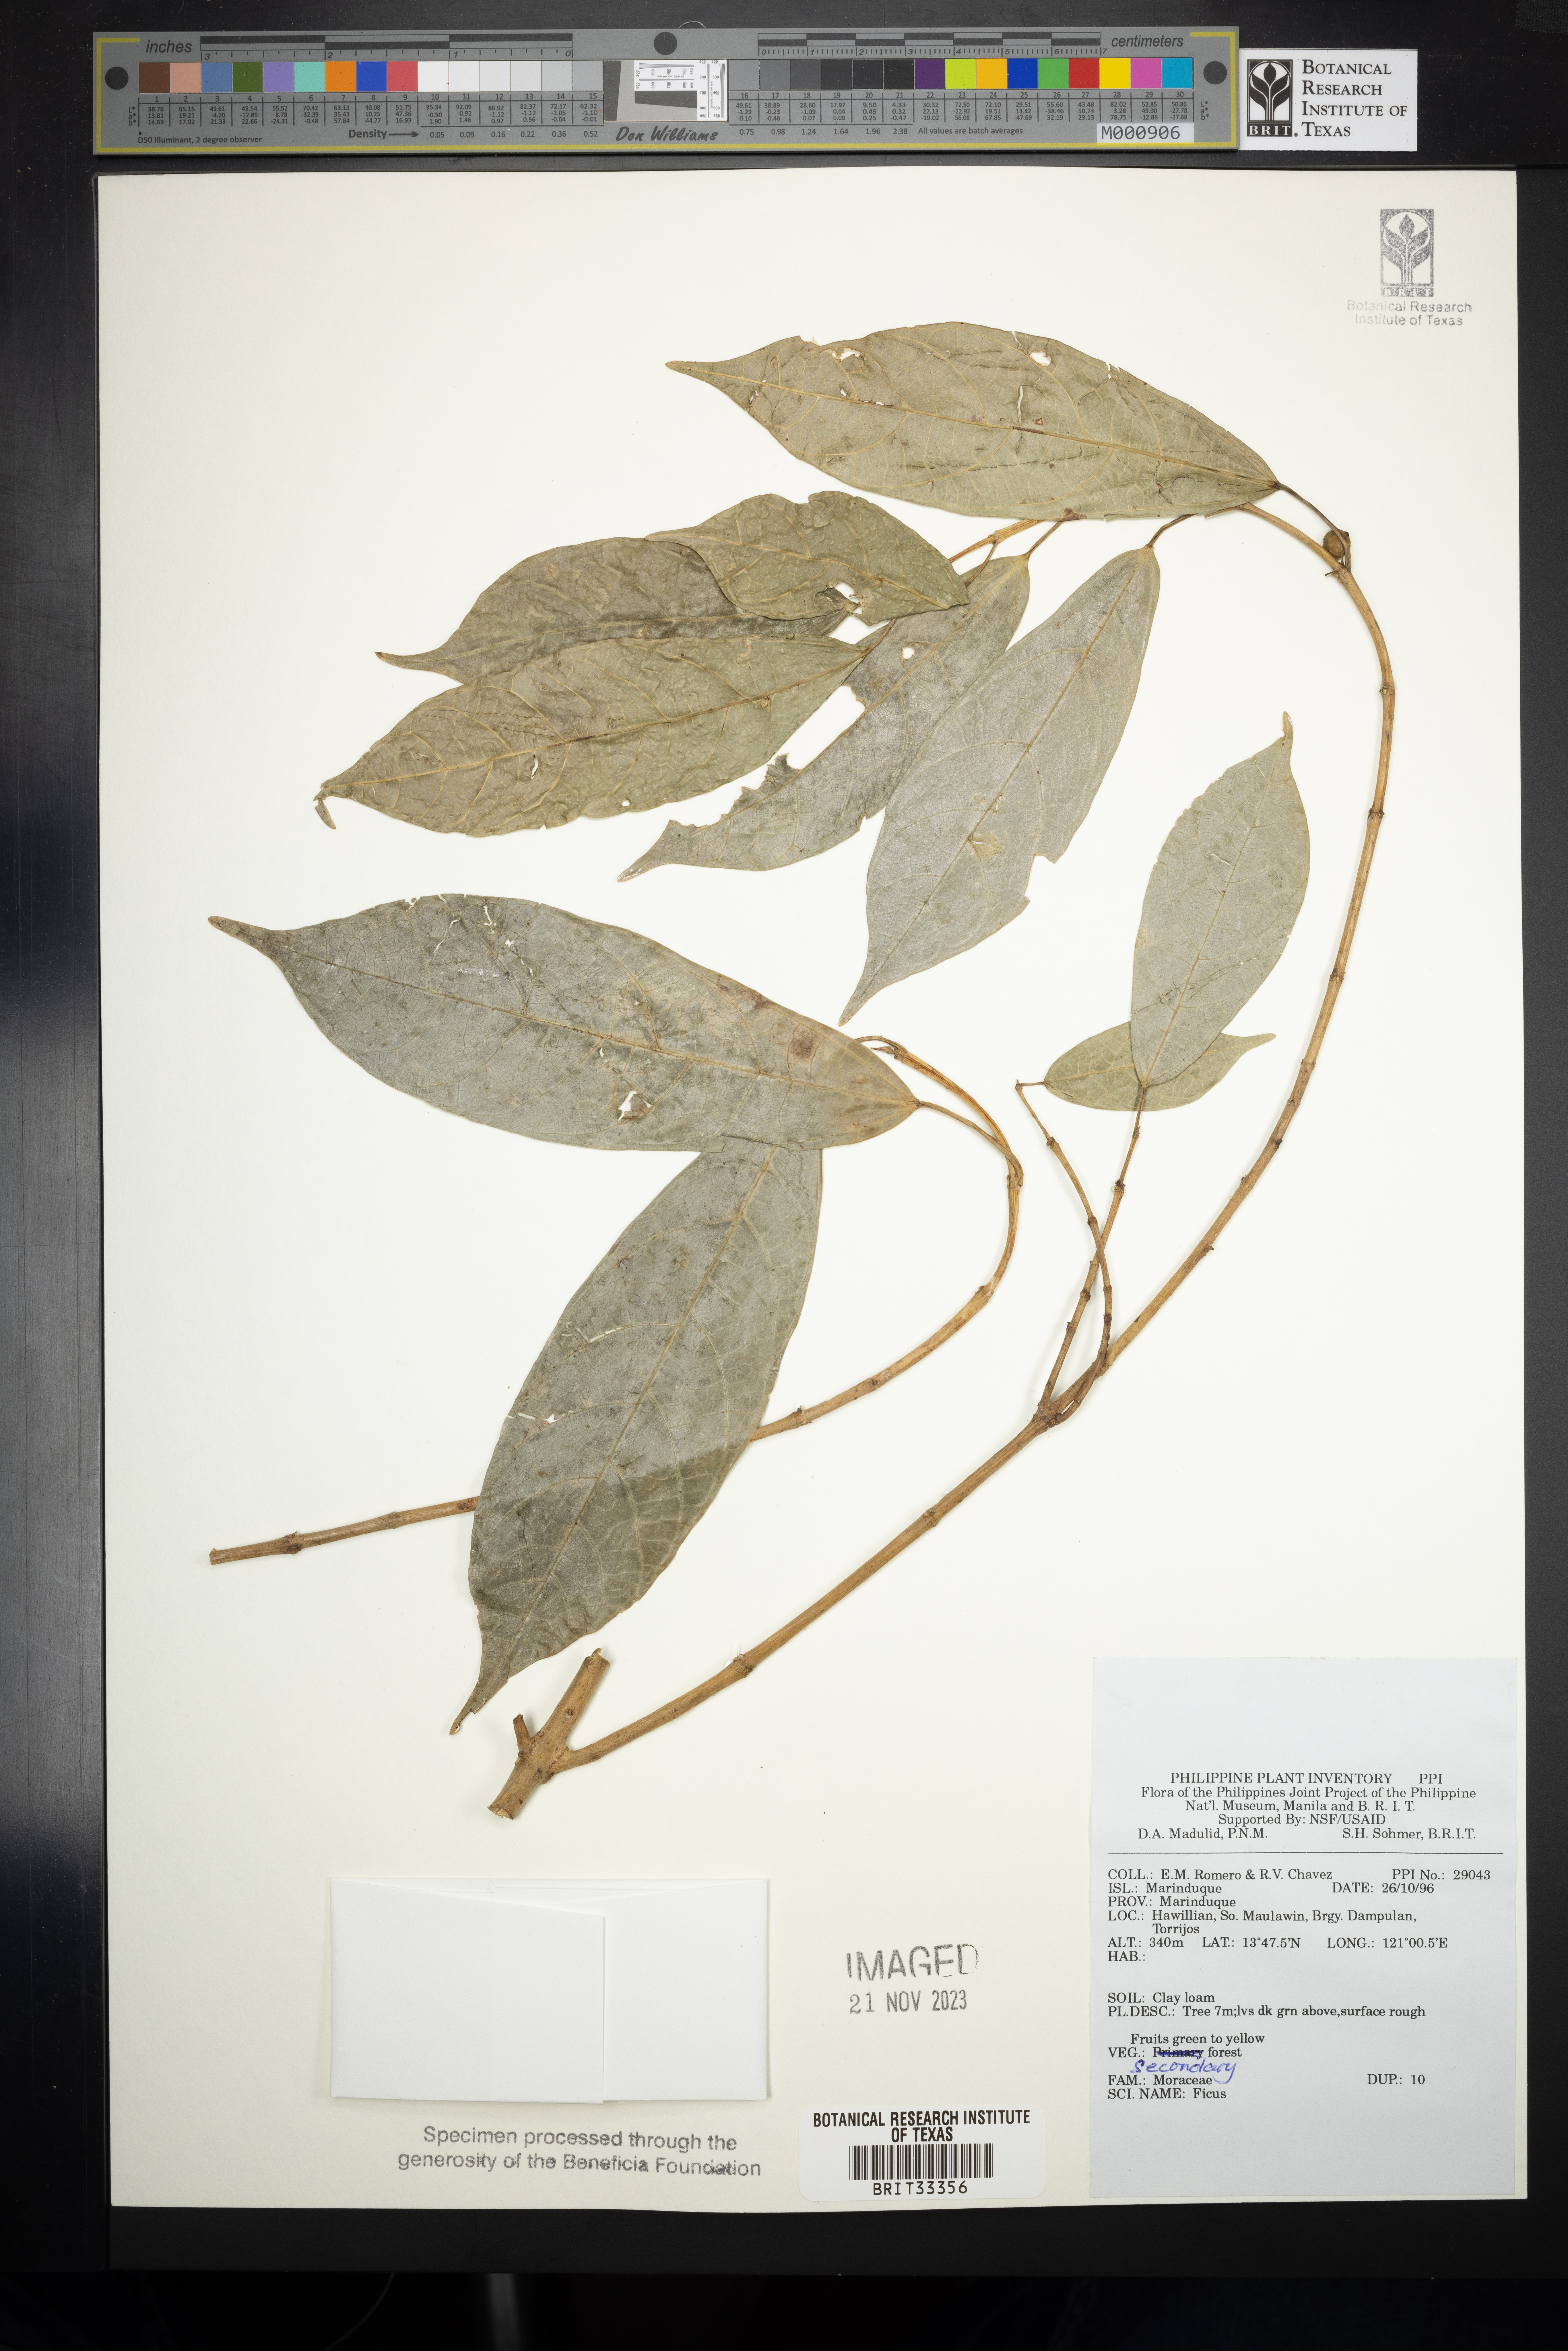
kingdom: Plantae
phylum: Tracheophyta
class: Magnoliopsida
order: Rosales
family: Moraceae
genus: Ficus
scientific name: Ficus
